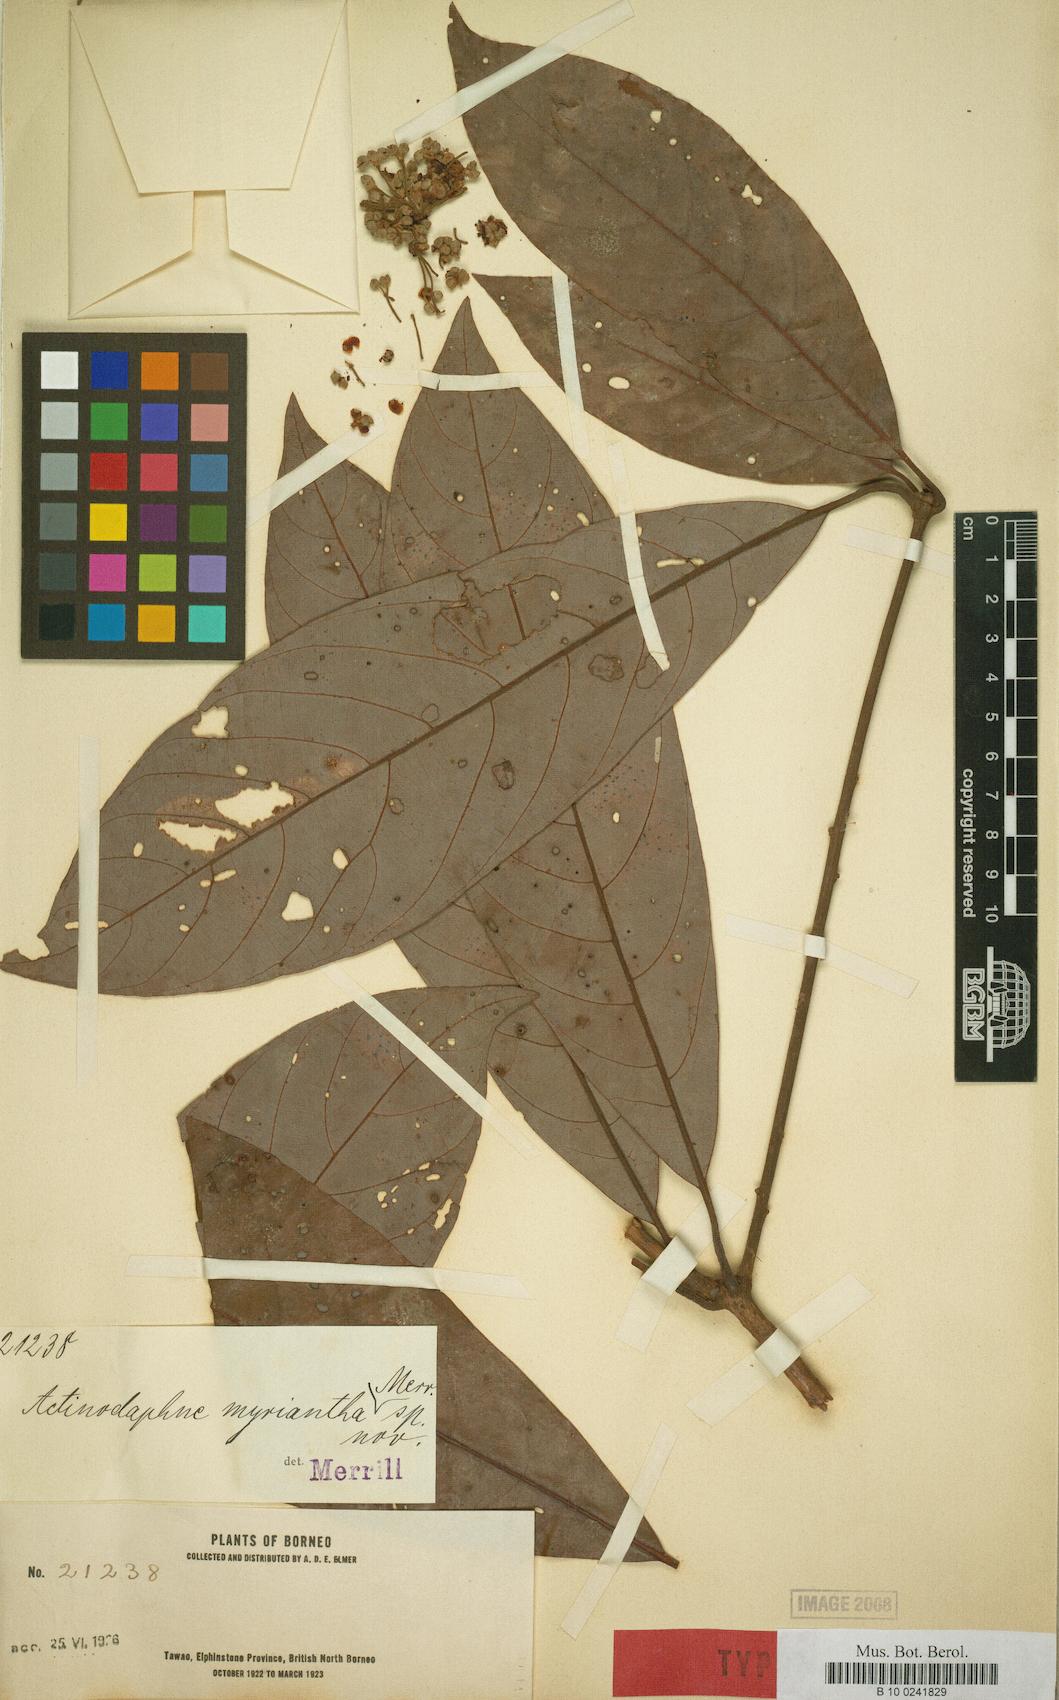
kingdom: Plantae
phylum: Tracheophyta
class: Magnoliopsida
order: Laurales
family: Lauraceae
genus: Actinodaphne
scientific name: Actinodaphne myriantha
